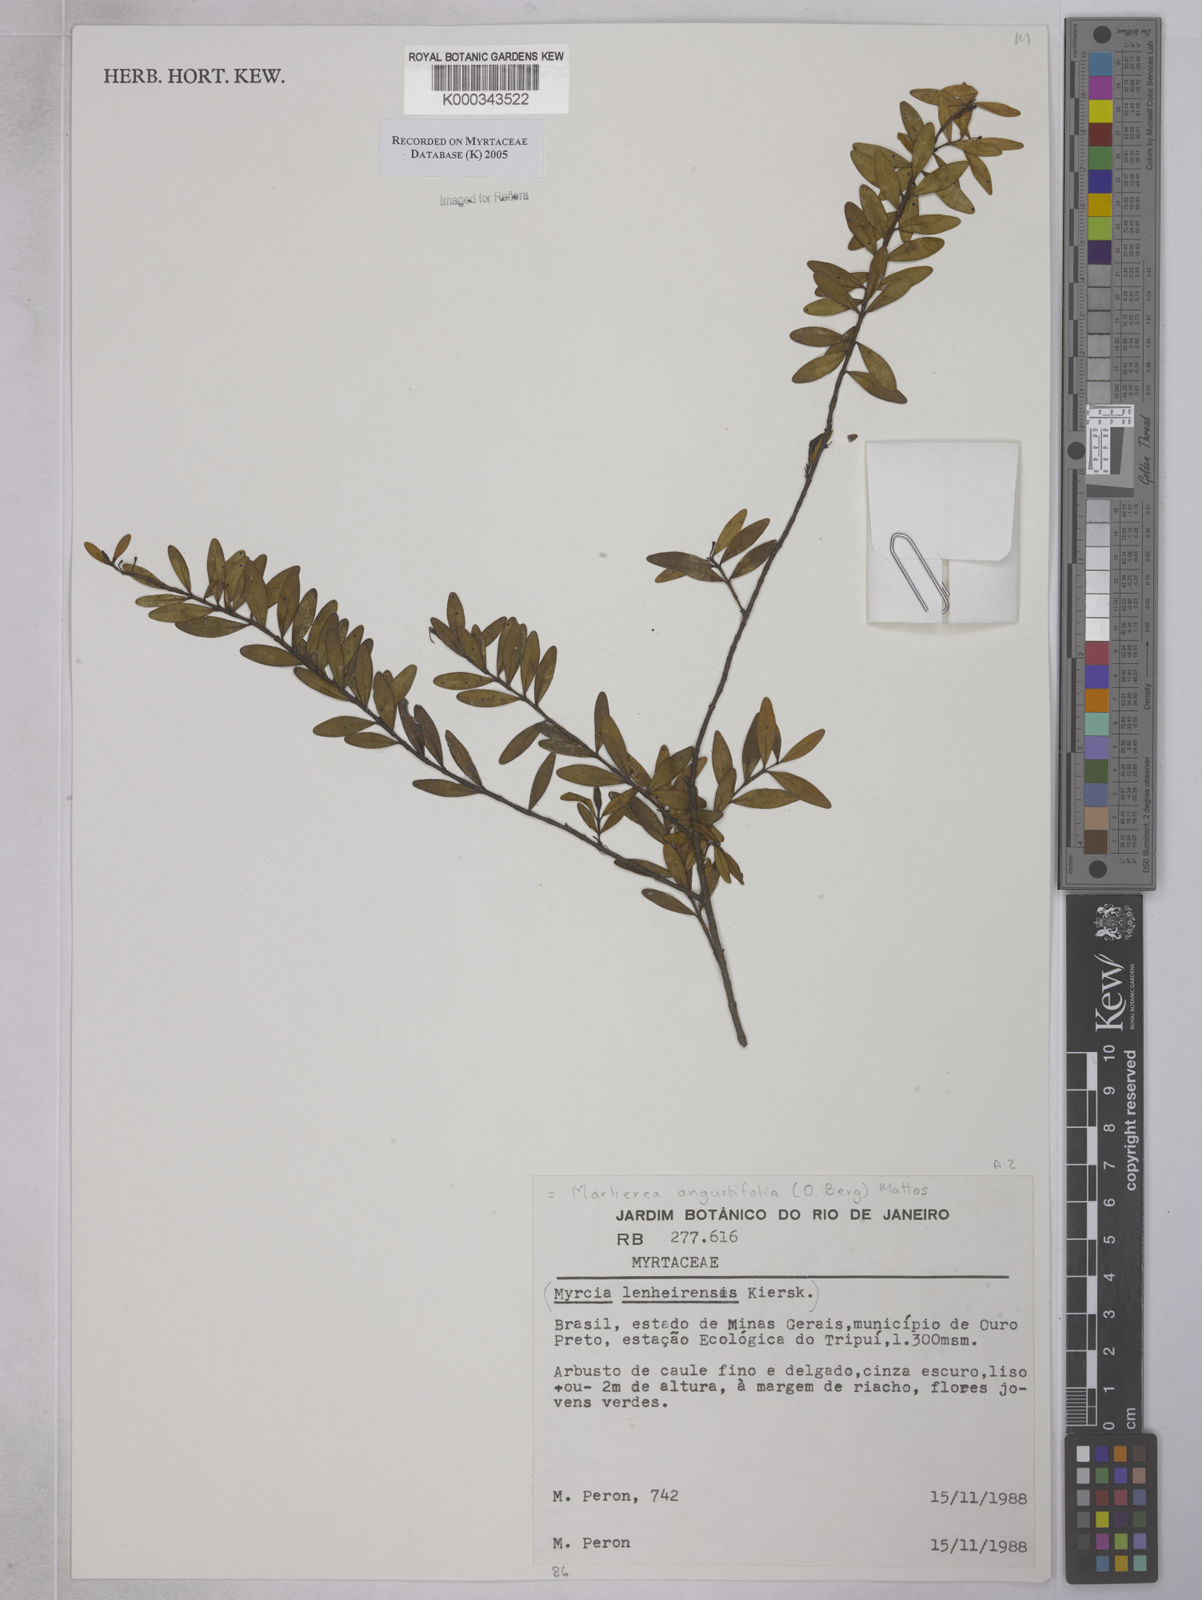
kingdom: Plantae
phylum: Tracheophyta
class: Magnoliopsida
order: Myrtales
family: Myrtaceae
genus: Myrcia
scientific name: Myrcia lenheirensis
